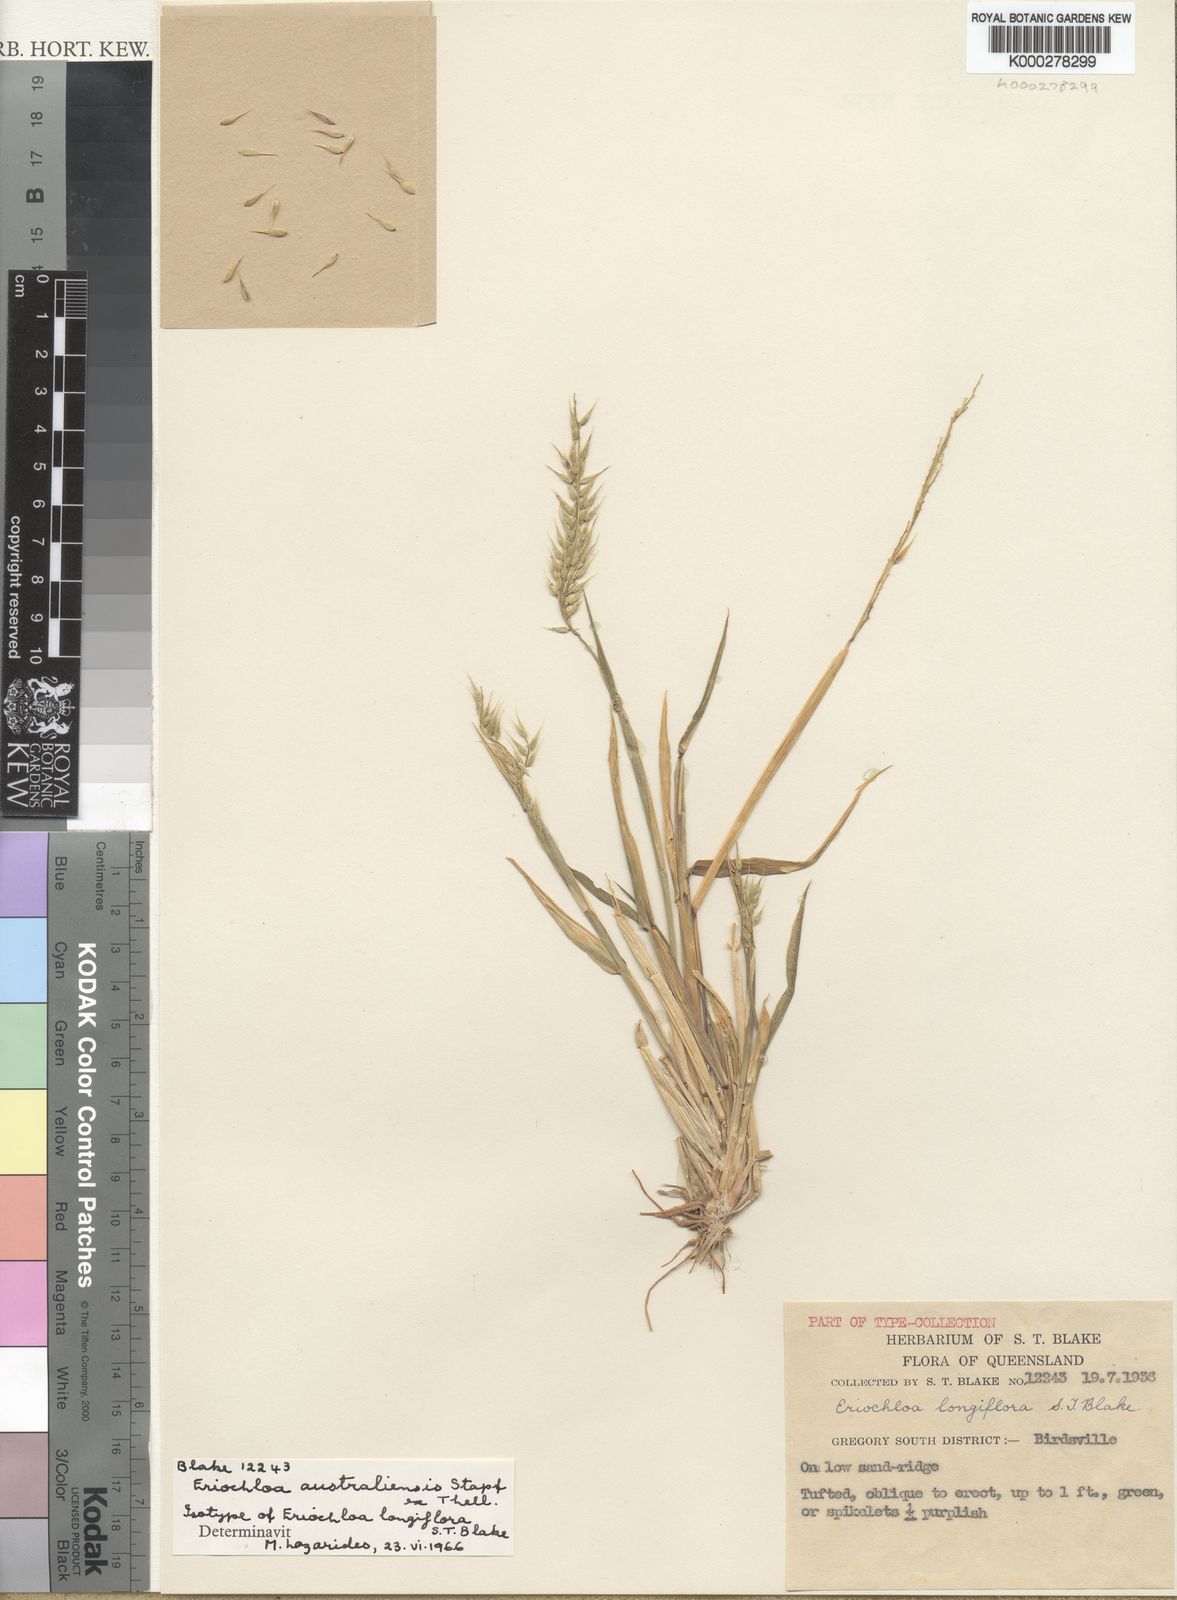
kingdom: Plantae
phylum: Tracheophyta
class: Liliopsida
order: Poales
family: Poaceae
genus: Eriochloa
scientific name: Eriochloa australiensis
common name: Australian cup grass
